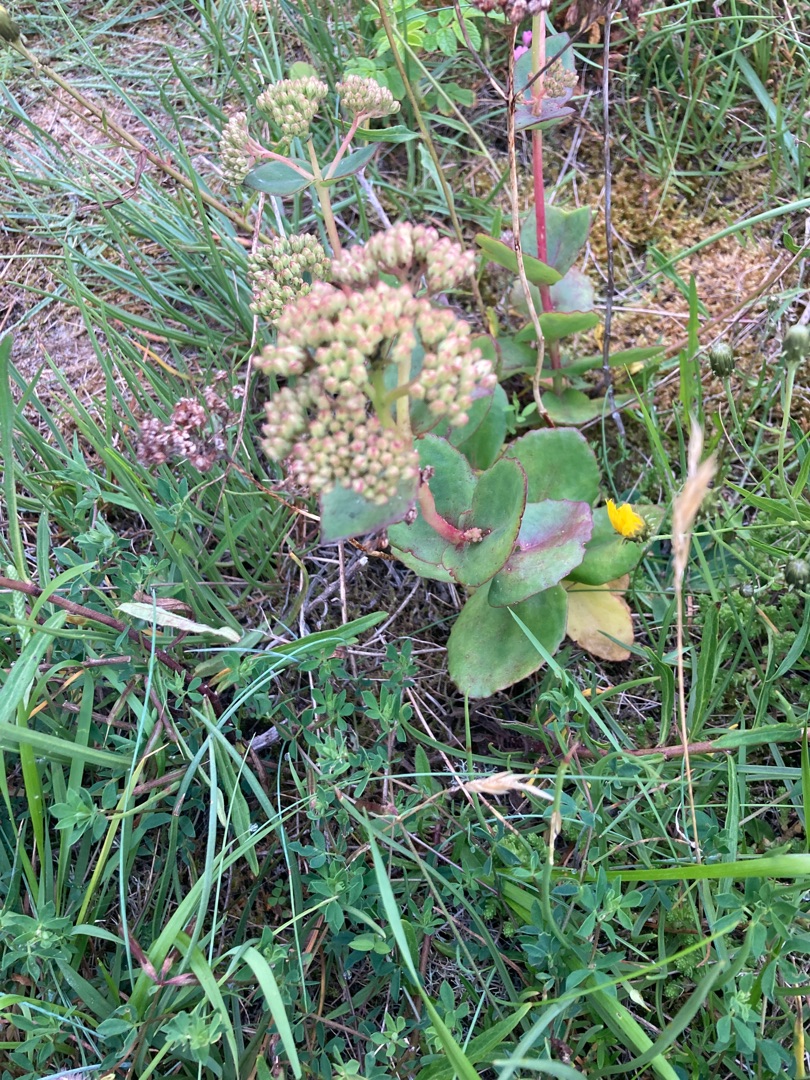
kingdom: Plantae
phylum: Tracheophyta
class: Magnoliopsida
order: Saxifragales
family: Crassulaceae
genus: Hylotelephium
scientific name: Hylotelephium maximum
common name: Almindelig sankthansurt
